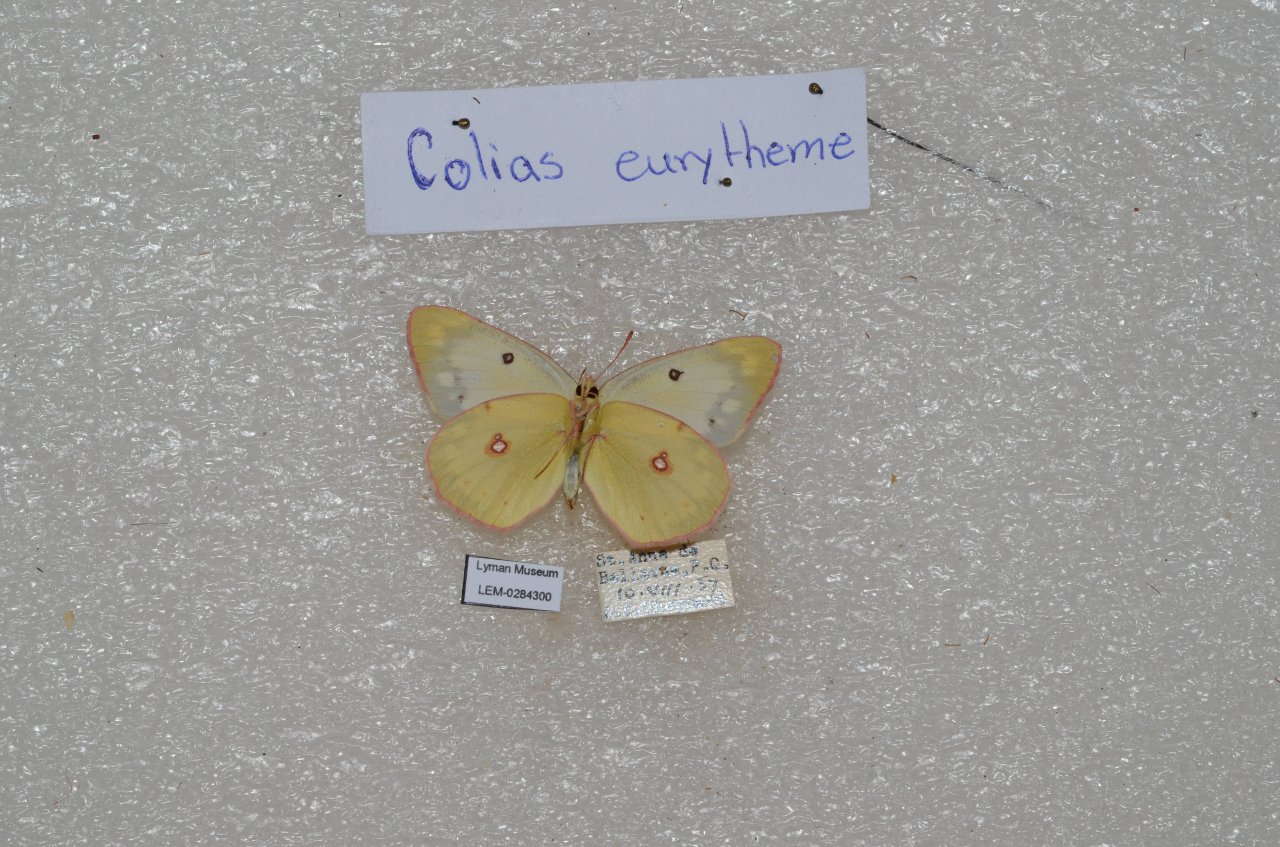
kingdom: Animalia
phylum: Arthropoda
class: Insecta
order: Lepidoptera
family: Pieridae
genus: Colias
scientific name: Colias eurytheme
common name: Orange Sulphur
